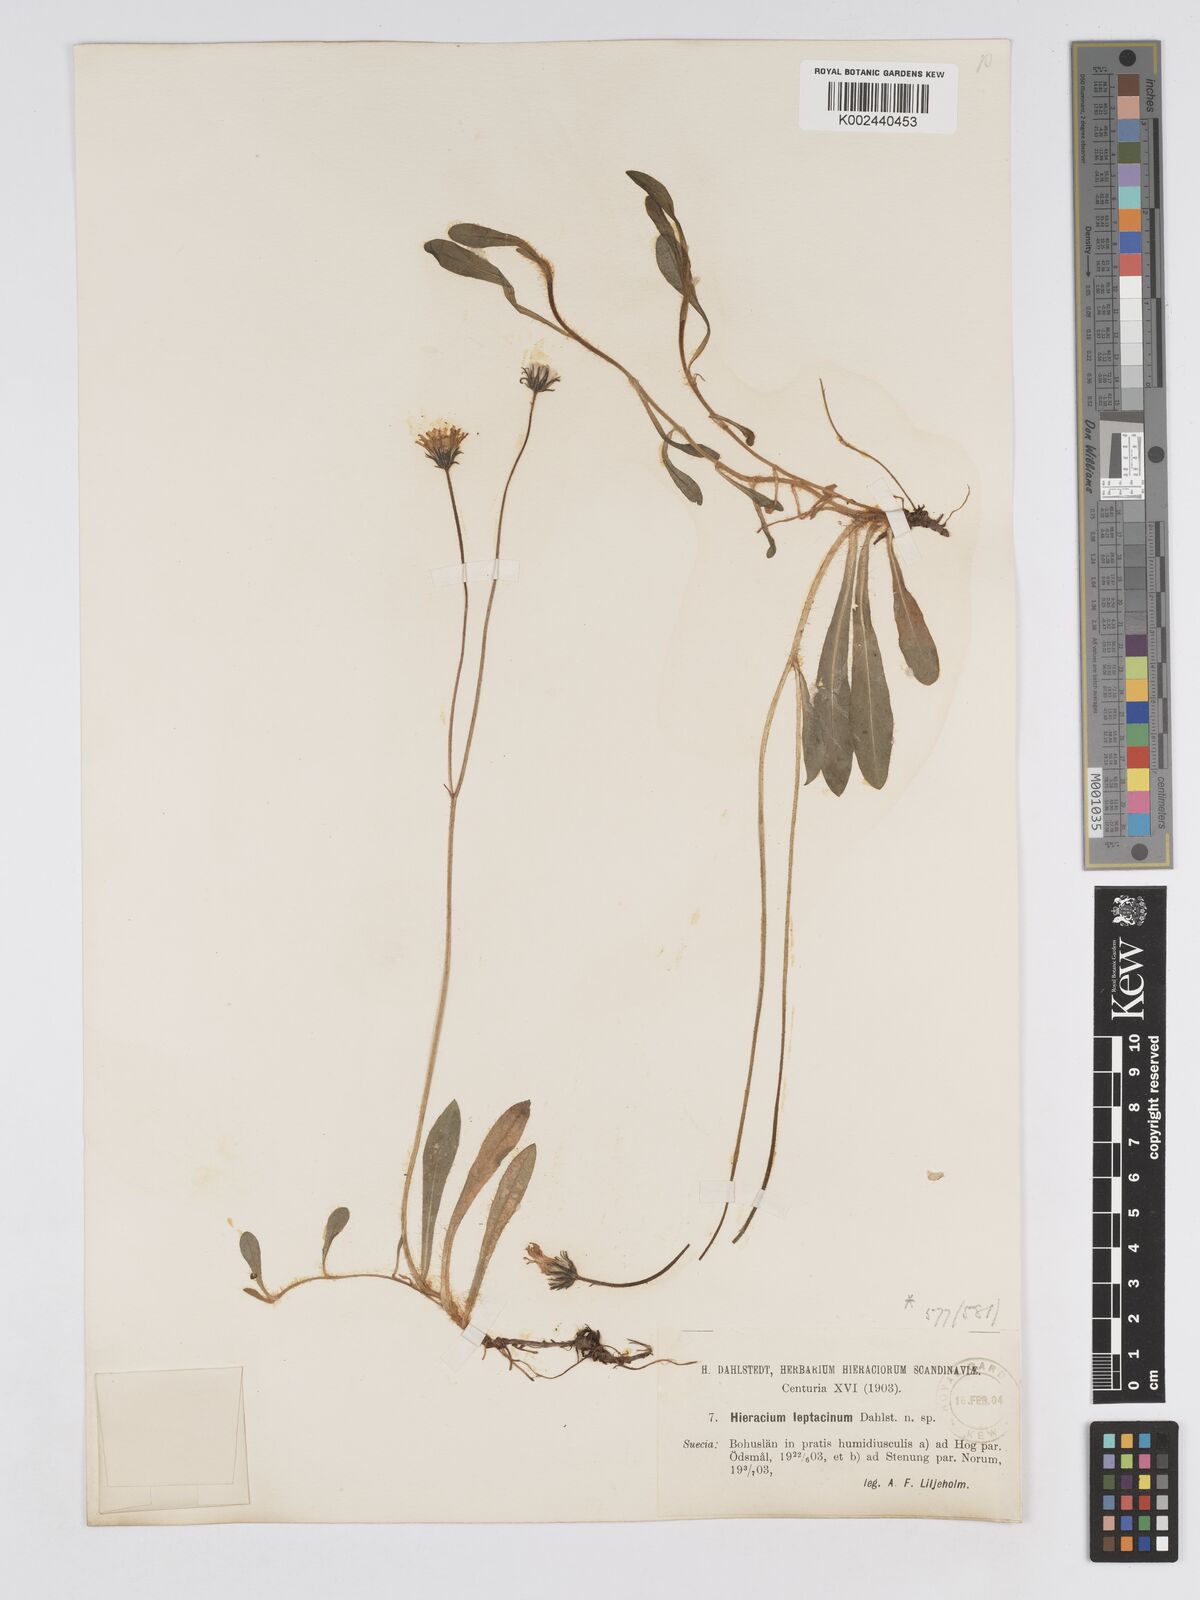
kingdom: Plantae
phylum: Tracheophyta
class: Magnoliopsida
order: Asterales
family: Asteraceae
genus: Hieracium
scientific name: Hieracium
